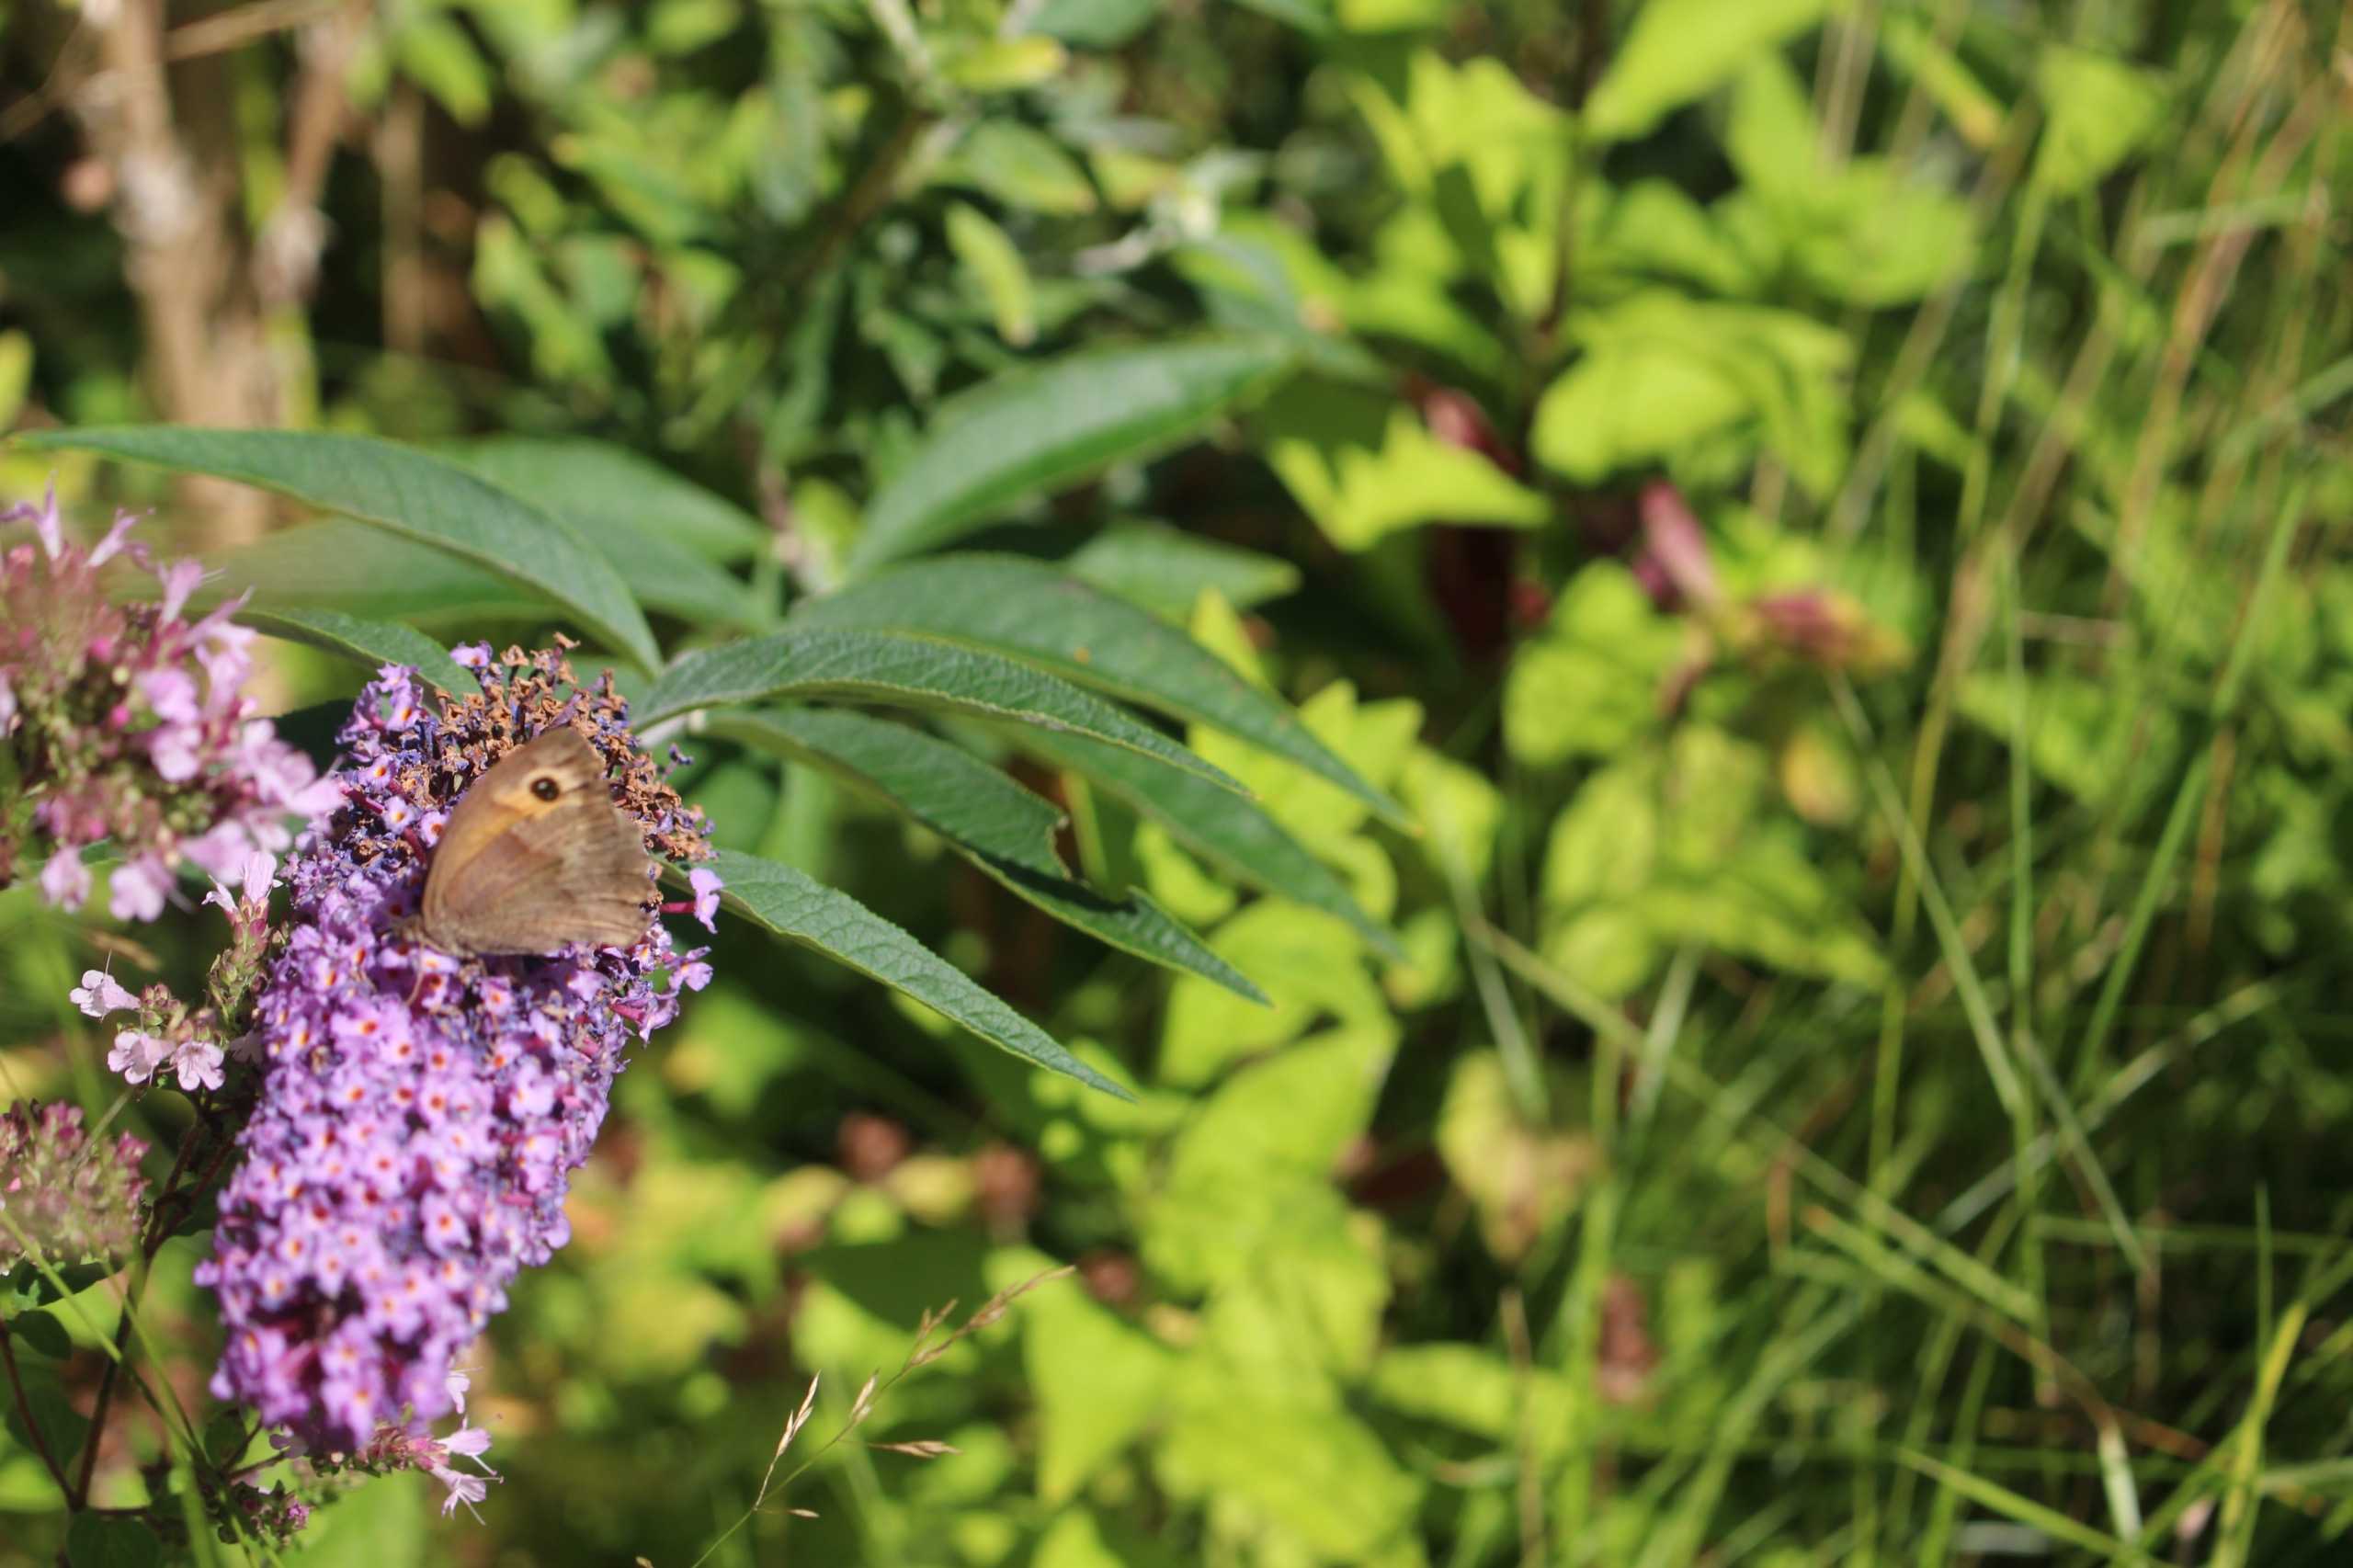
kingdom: Animalia
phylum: Arthropoda
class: Insecta
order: Lepidoptera
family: Nymphalidae
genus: Maniola
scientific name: Maniola jurtina
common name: Græsrandøje
